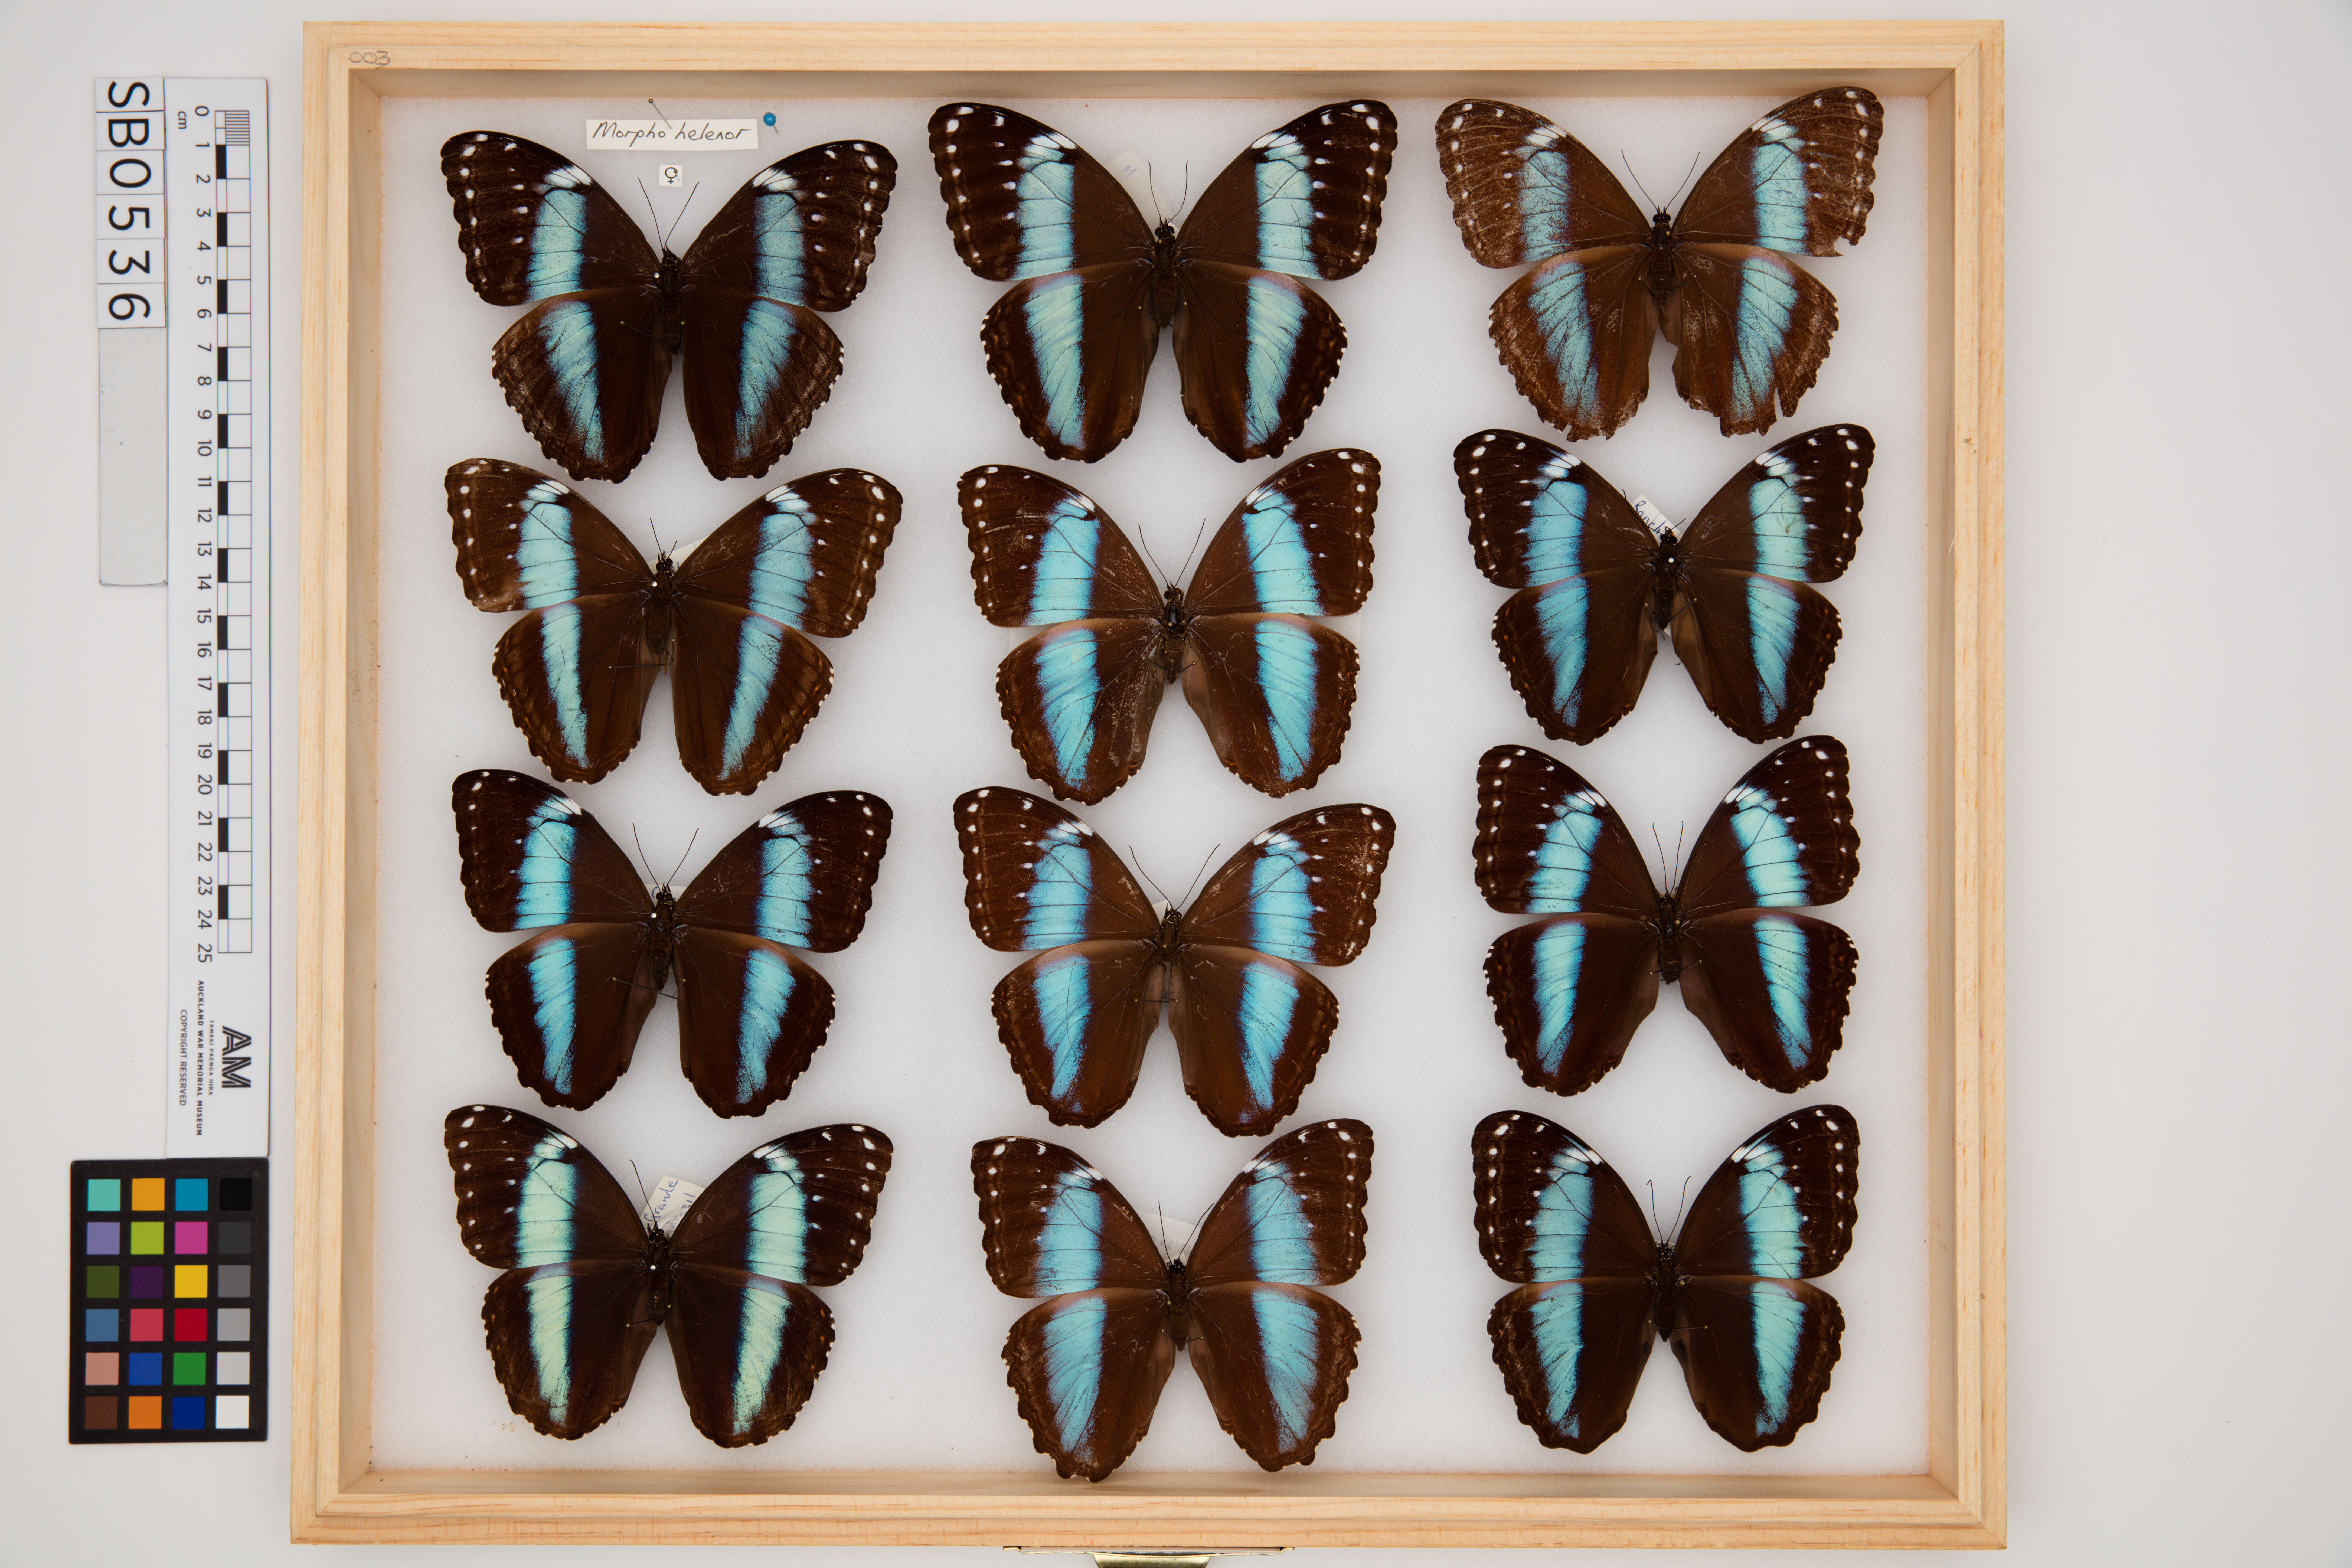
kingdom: Animalia
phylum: Arthropoda
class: Insecta
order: Lepidoptera
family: Nymphalidae
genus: Morpho
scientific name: Morpho helenor
